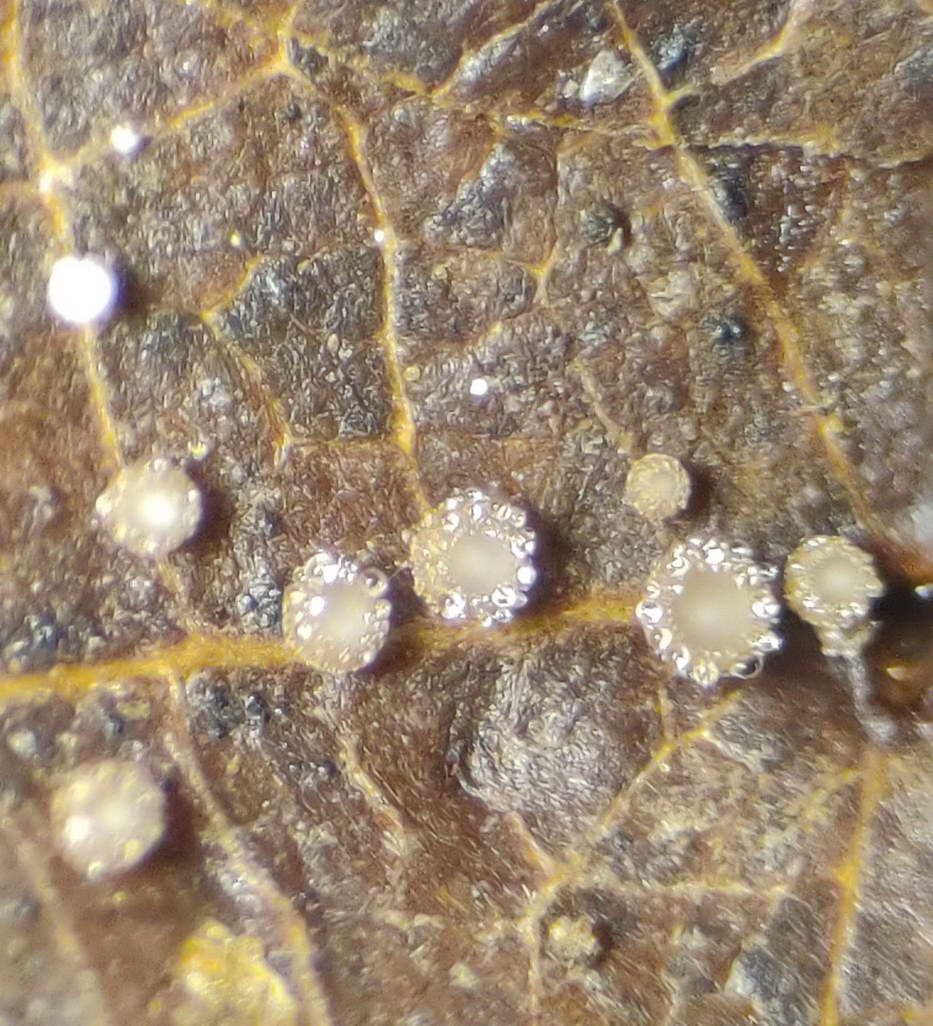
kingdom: Fungi
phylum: Ascomycota
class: Leotiomycetes
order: Helotiales
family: Lachnaceae
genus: Brunnipila
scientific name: Brunnipila brunneola
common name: læderbrun frynseskive
